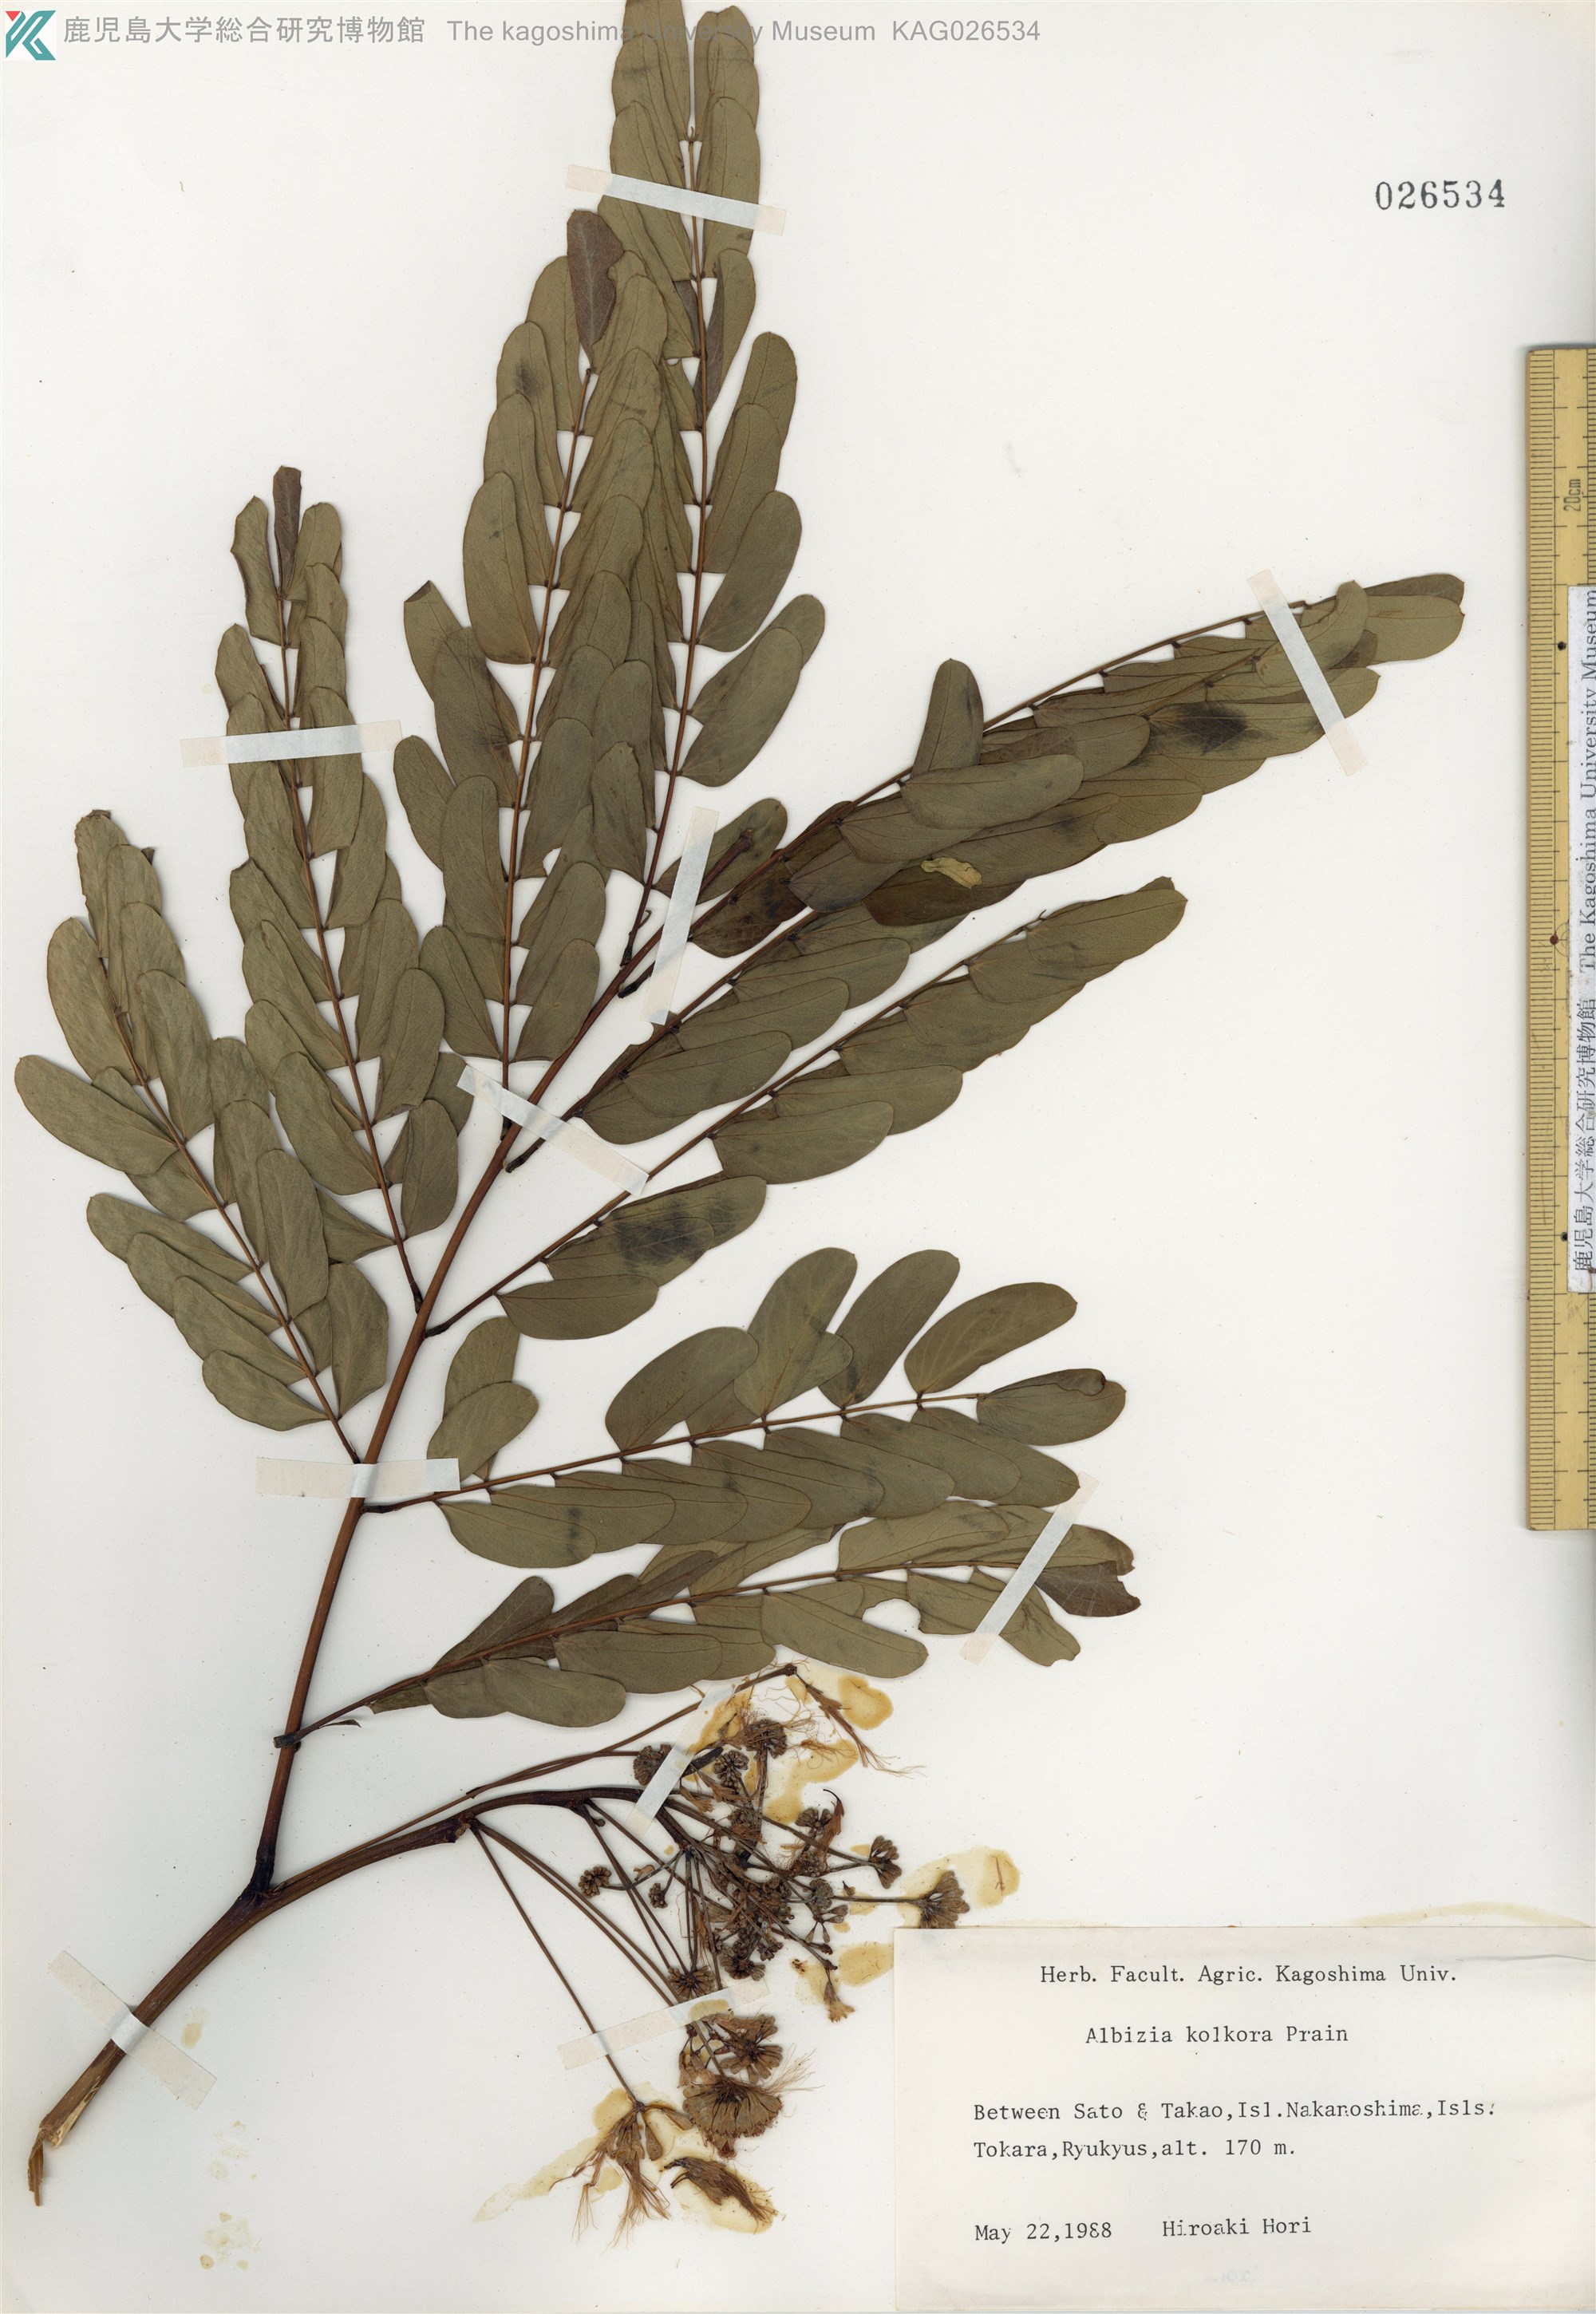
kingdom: Plantae
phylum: Tracheophyta
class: Magnoliopsida
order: Fabales
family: Fabaceae
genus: Albizia
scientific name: Albizia kalkora
